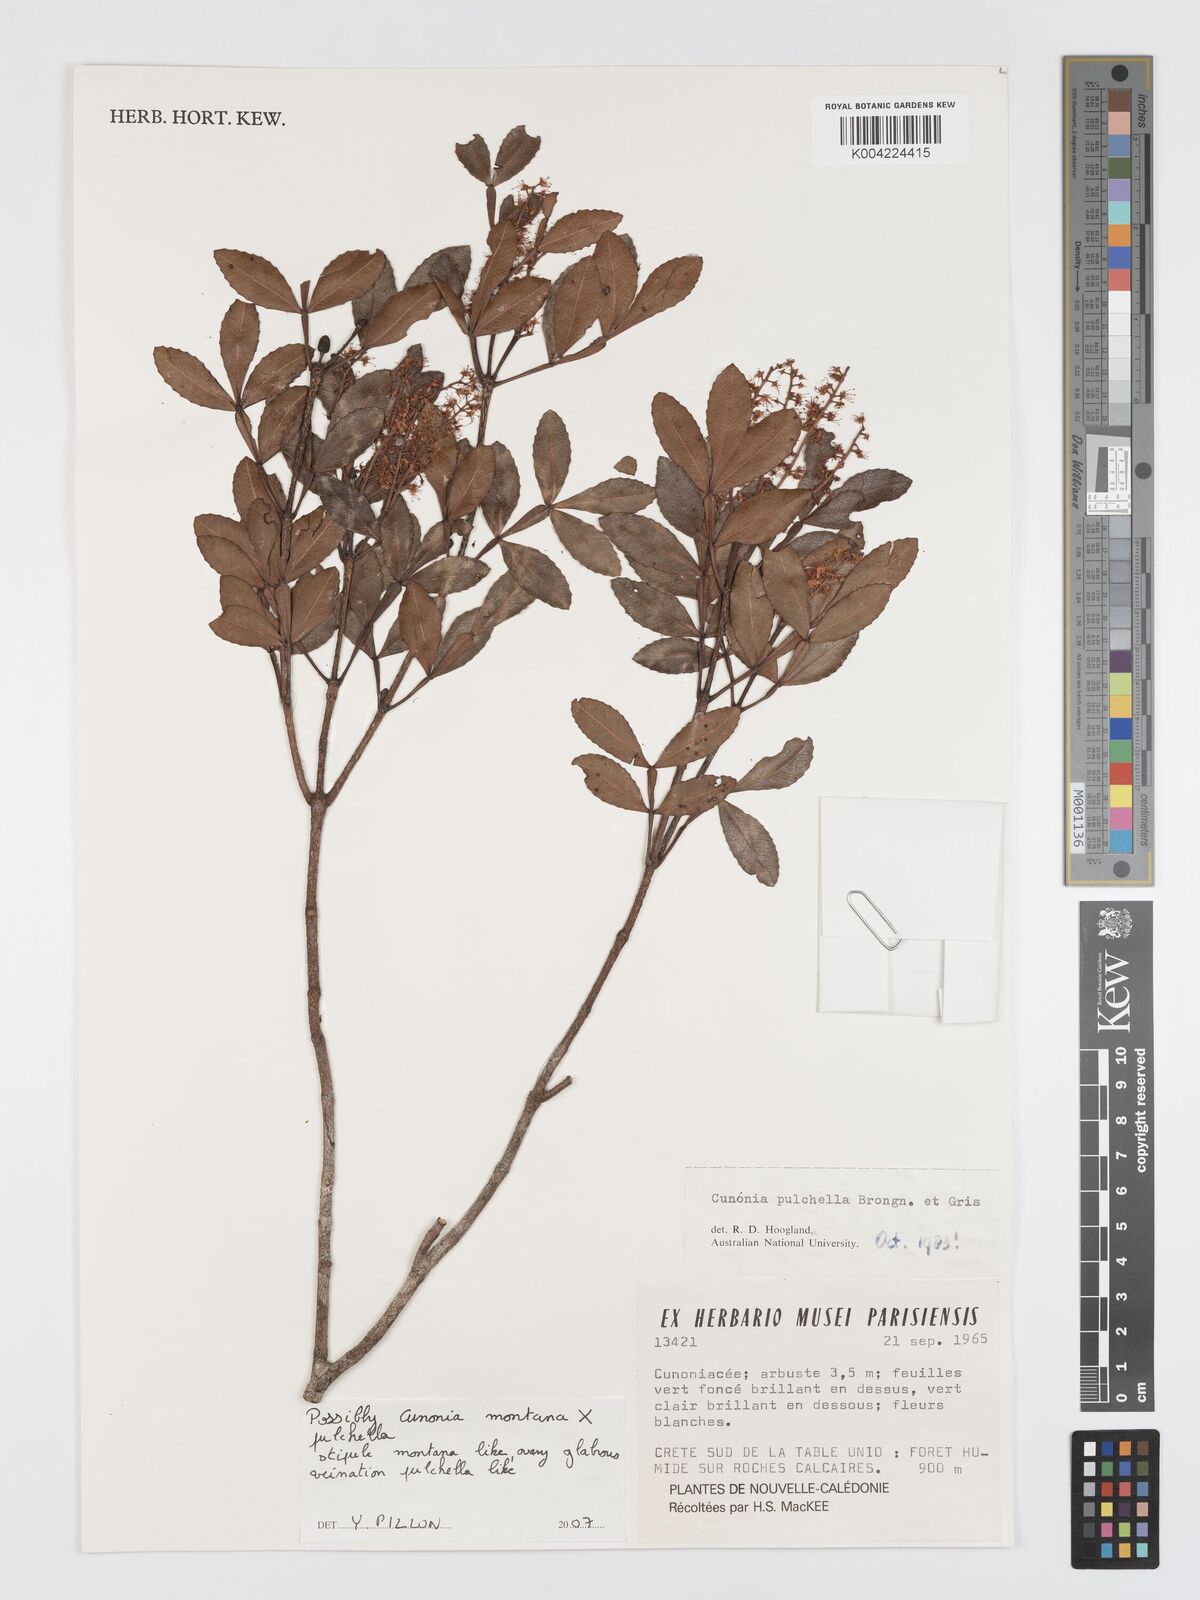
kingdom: Plantae
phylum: Tracheophyta
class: Magnoliopsida
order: Oxalidales
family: Cunoniaceae
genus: Cunonia
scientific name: Cunonia
